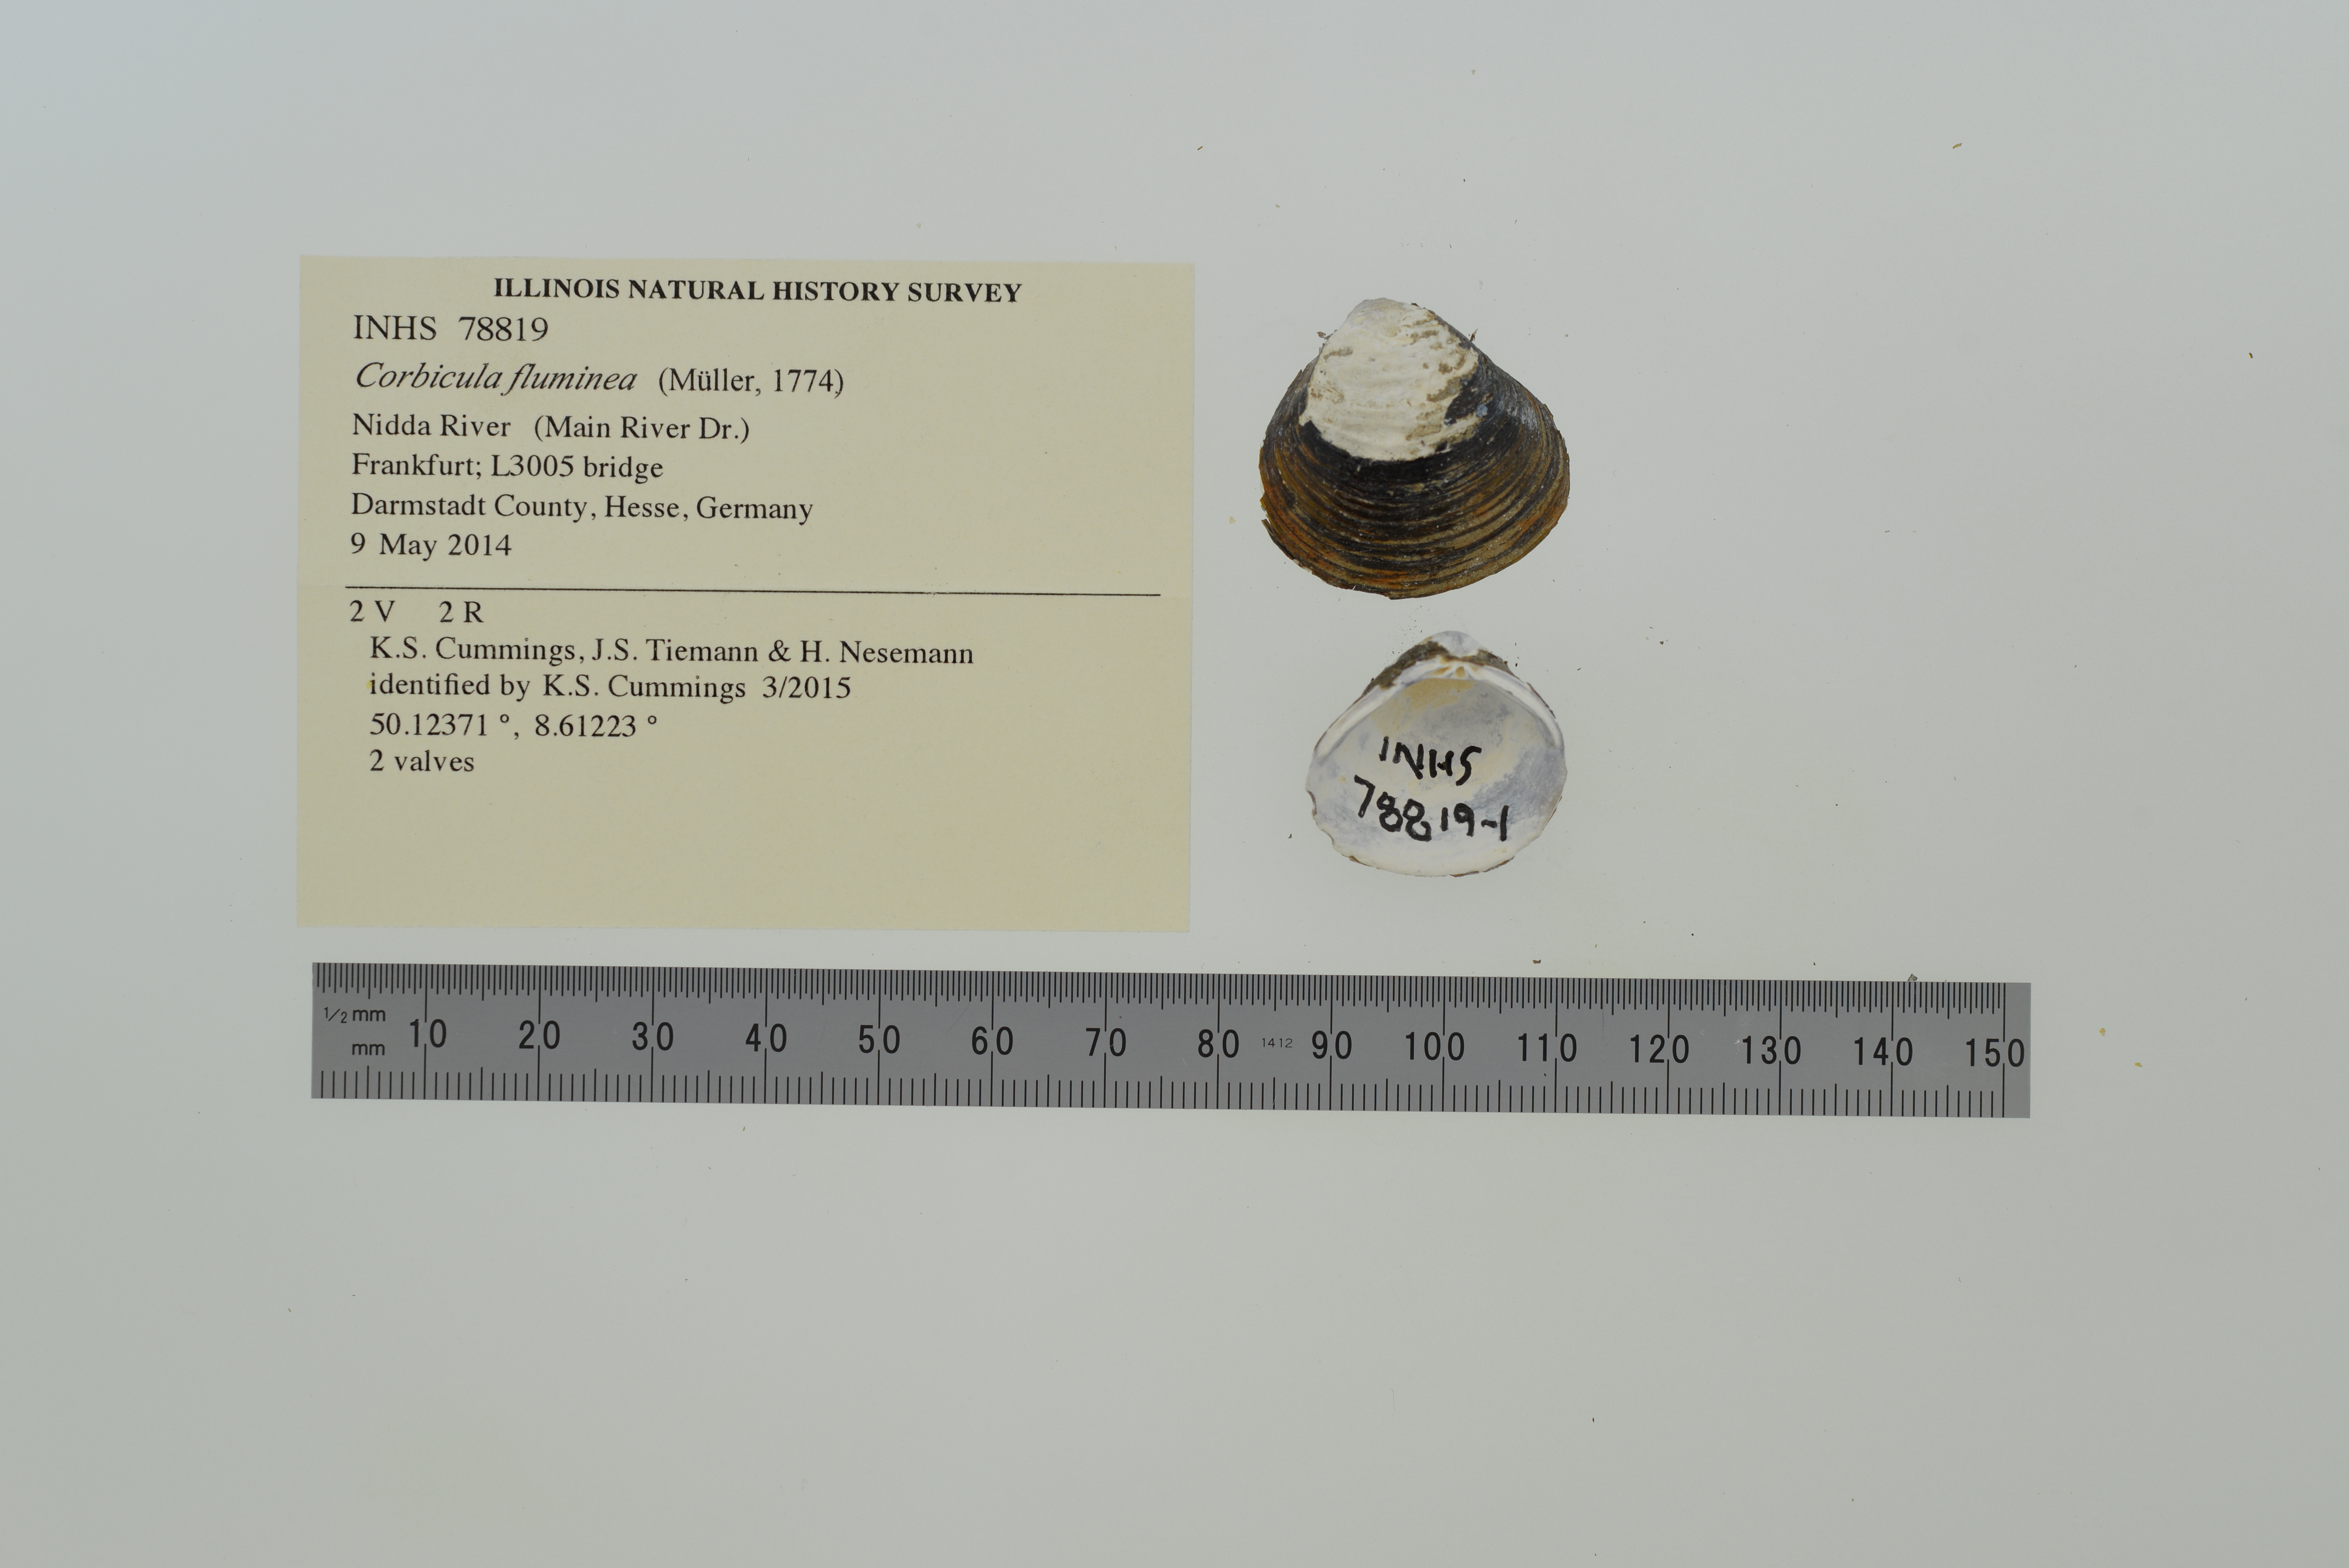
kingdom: Animalia
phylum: Mollusca
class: Bivalvia
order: Venerida
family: Cyrenidae
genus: Corbicula
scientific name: Corbicula fluminea
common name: Asian clam
